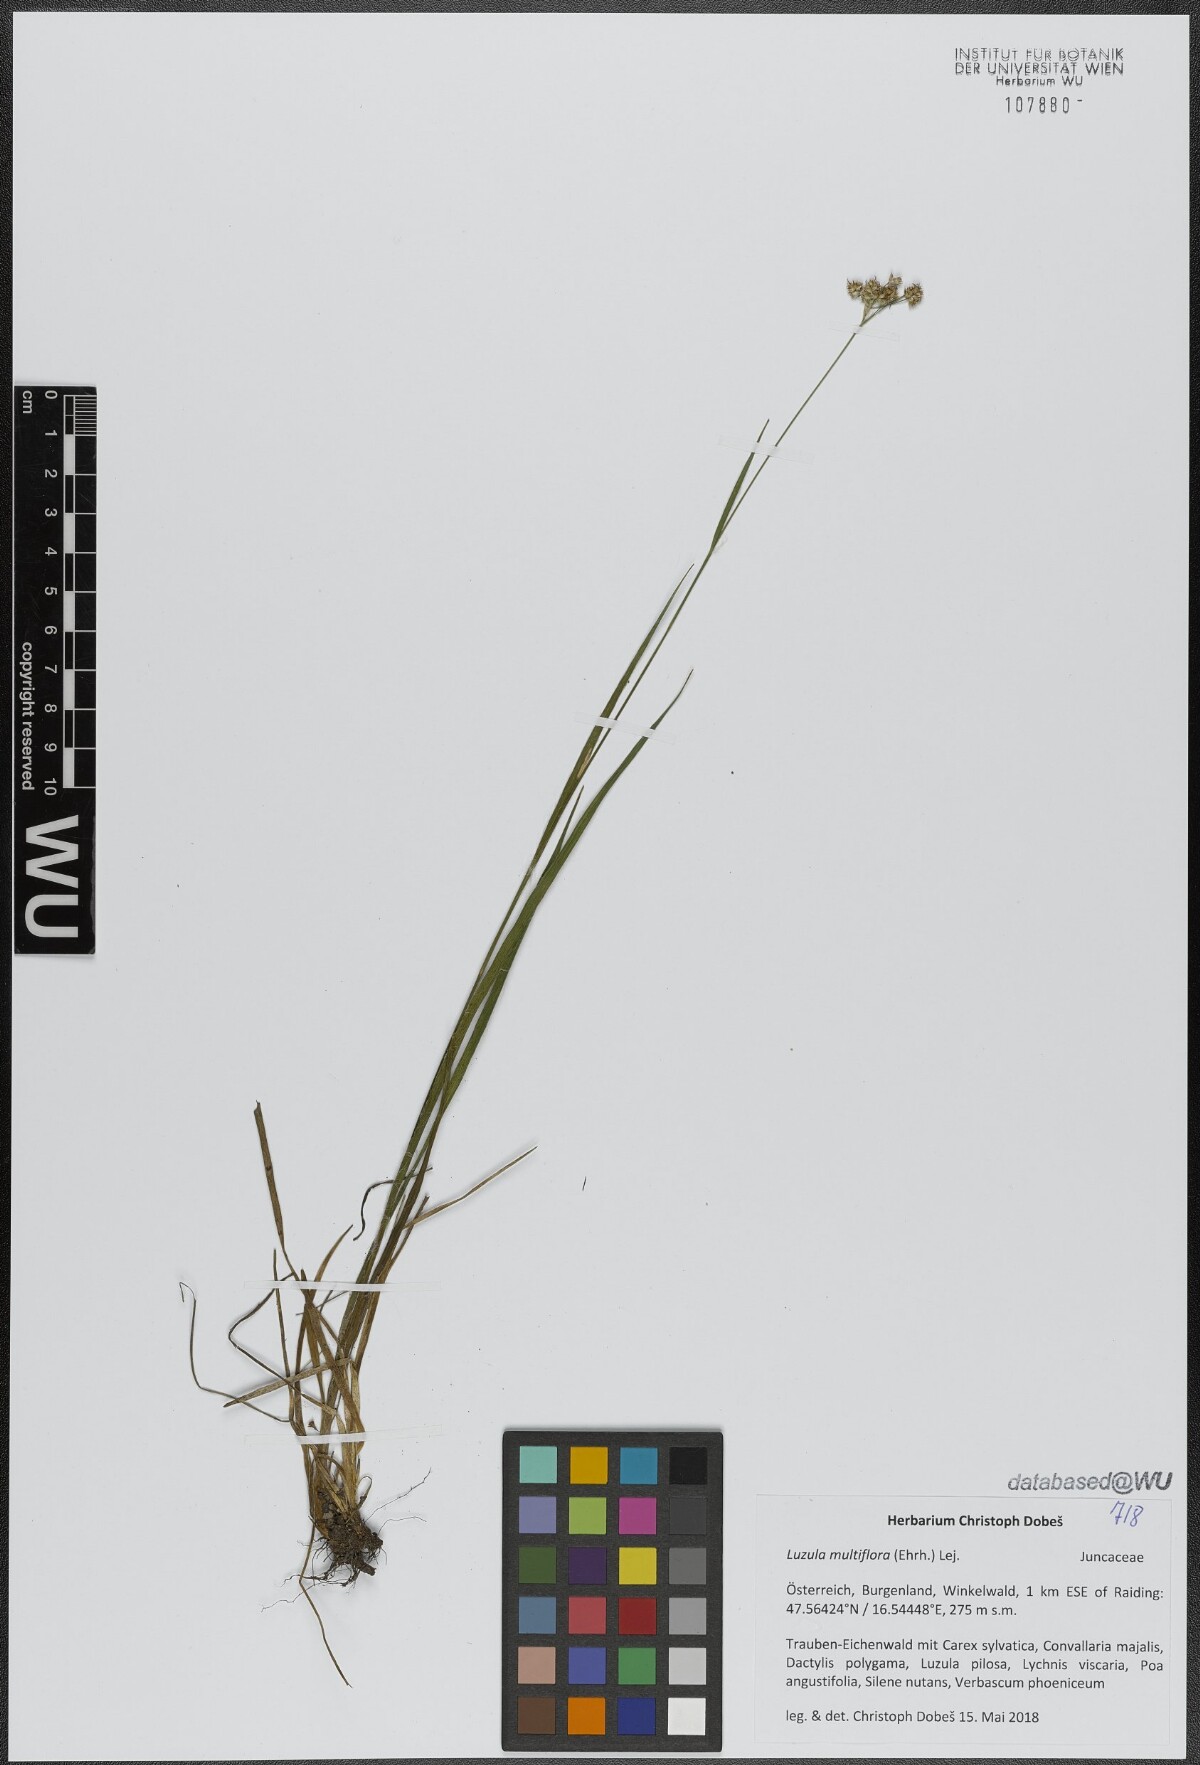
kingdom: Plantae
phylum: Tracheophyta
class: Liliopsida
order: Poales
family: Juncaceae
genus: Luzula
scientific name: Luzula multiflora
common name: Heath wood-rush
